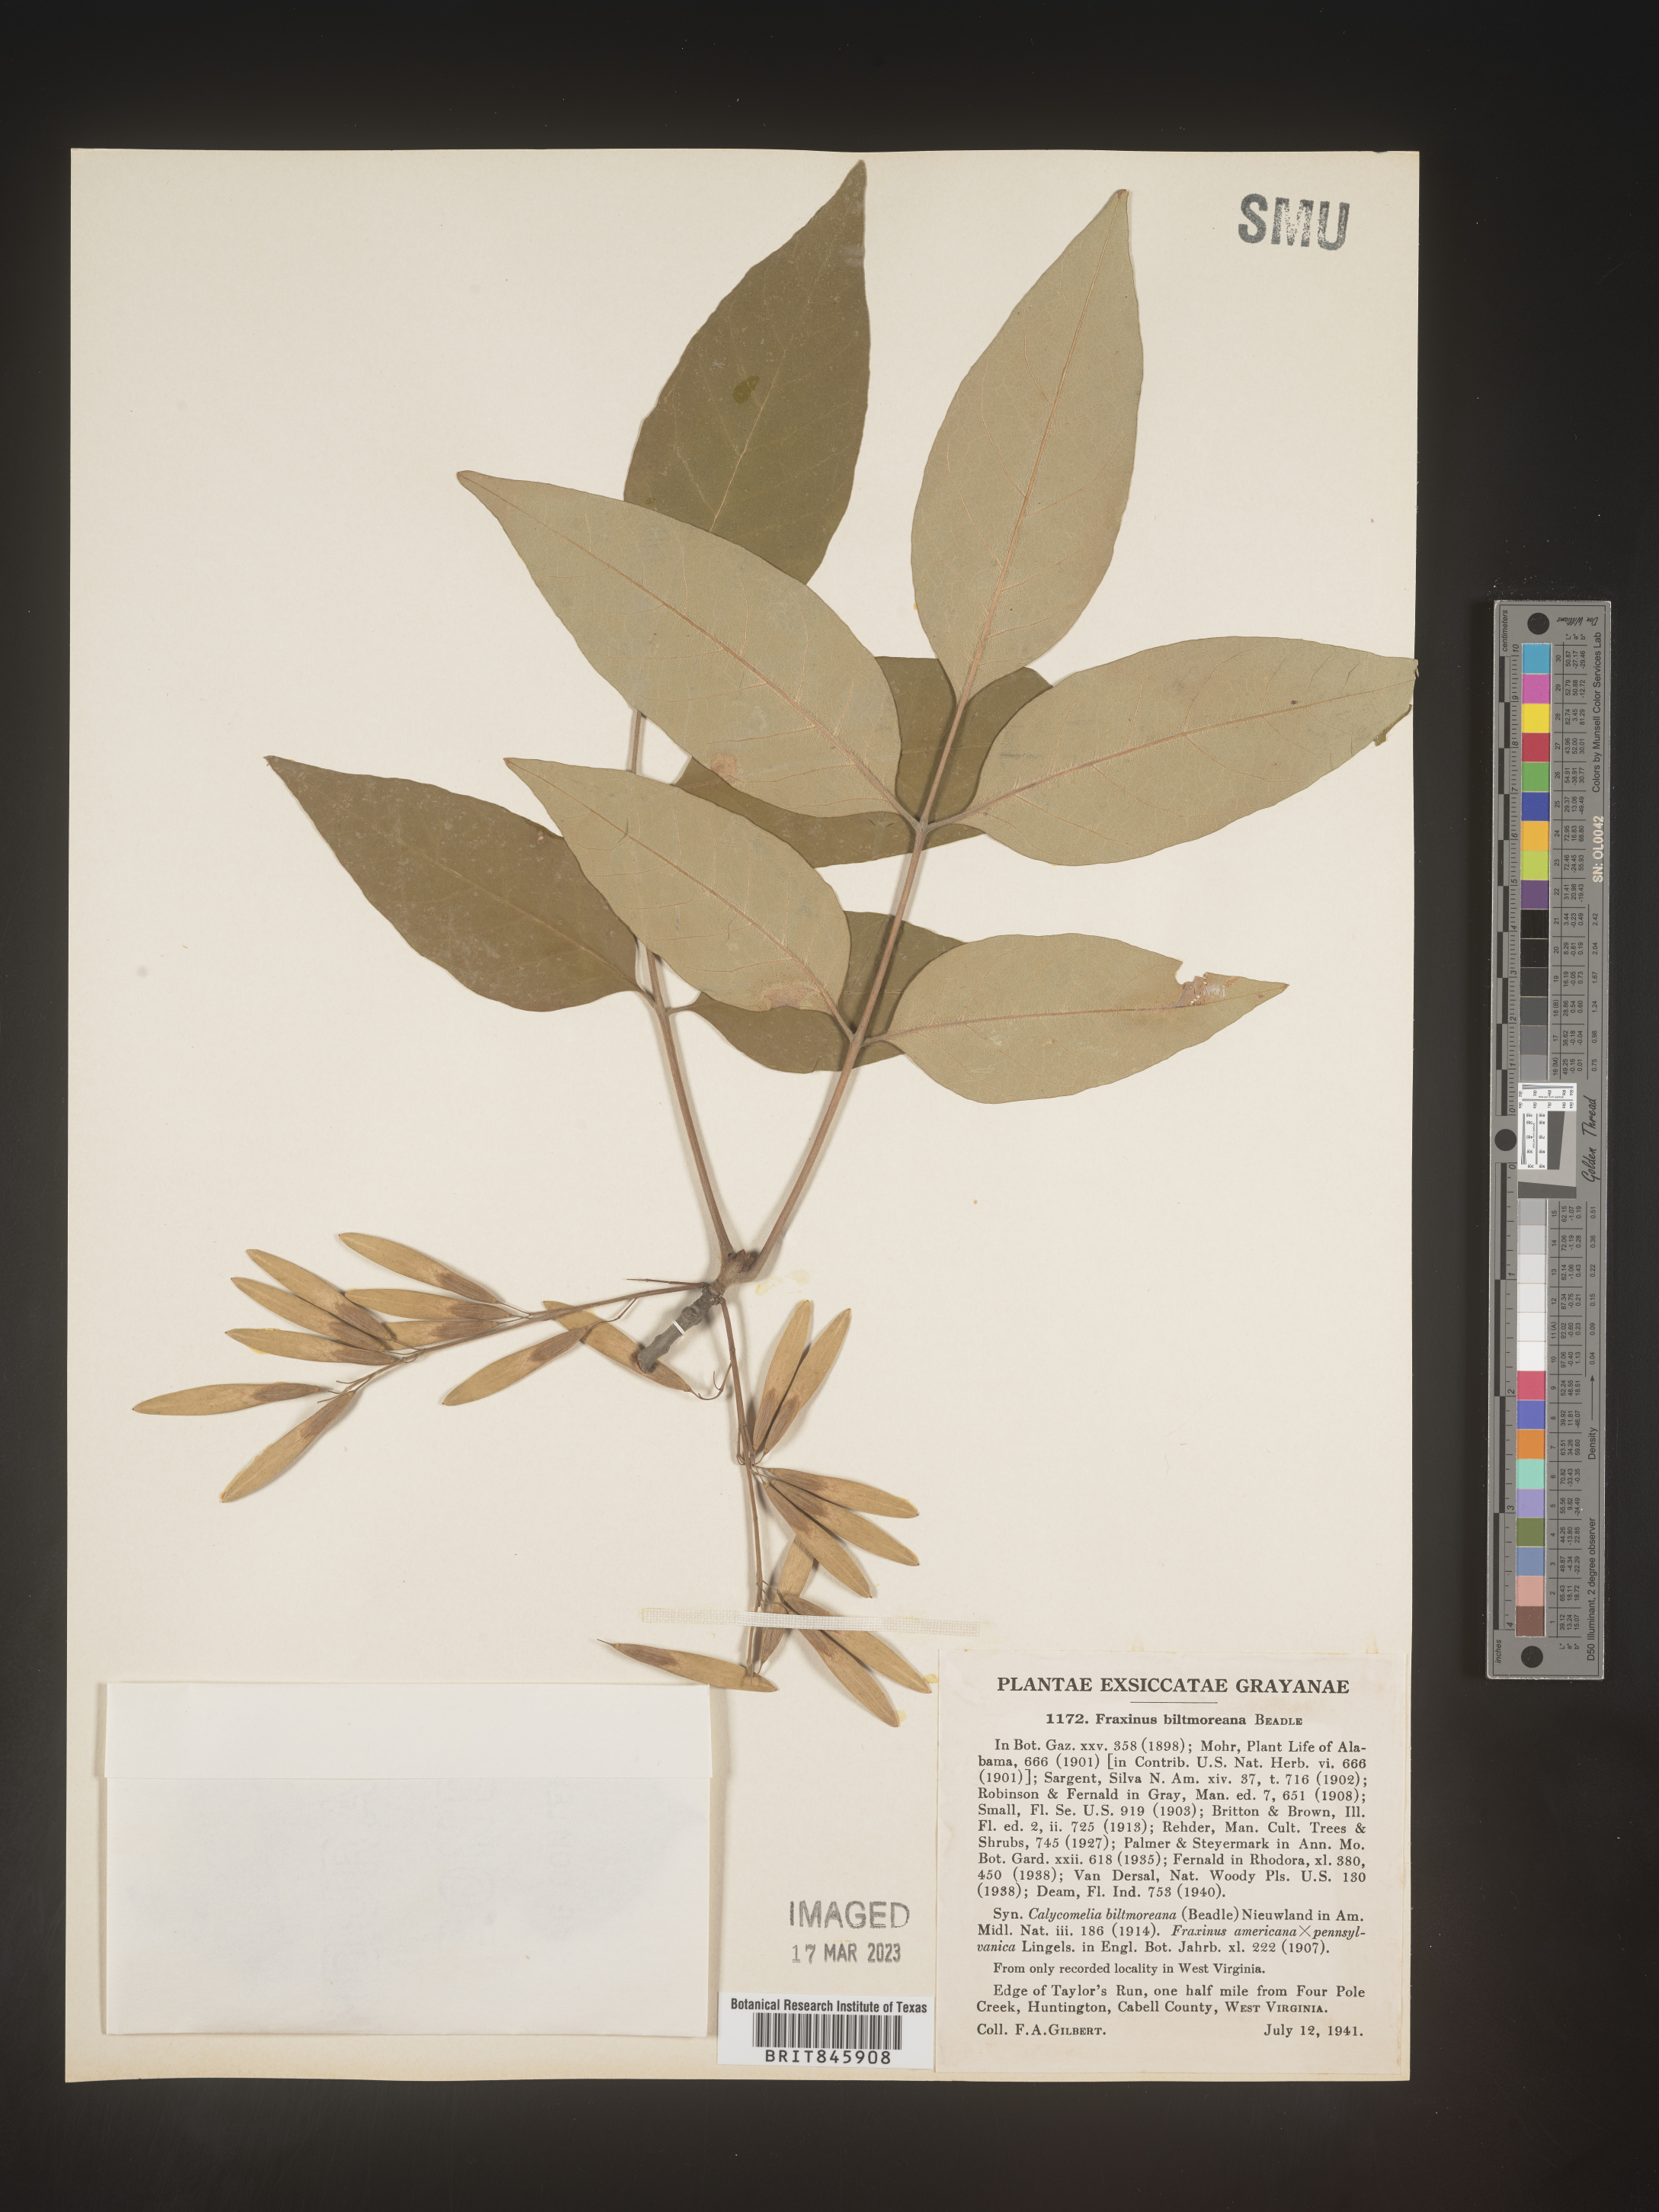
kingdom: Plantae
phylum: Tracheophyta
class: Magnoliopsida
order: Lamiales
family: Oleaceae
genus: Fraxinus
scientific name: Fraxinus americana
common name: White ash
